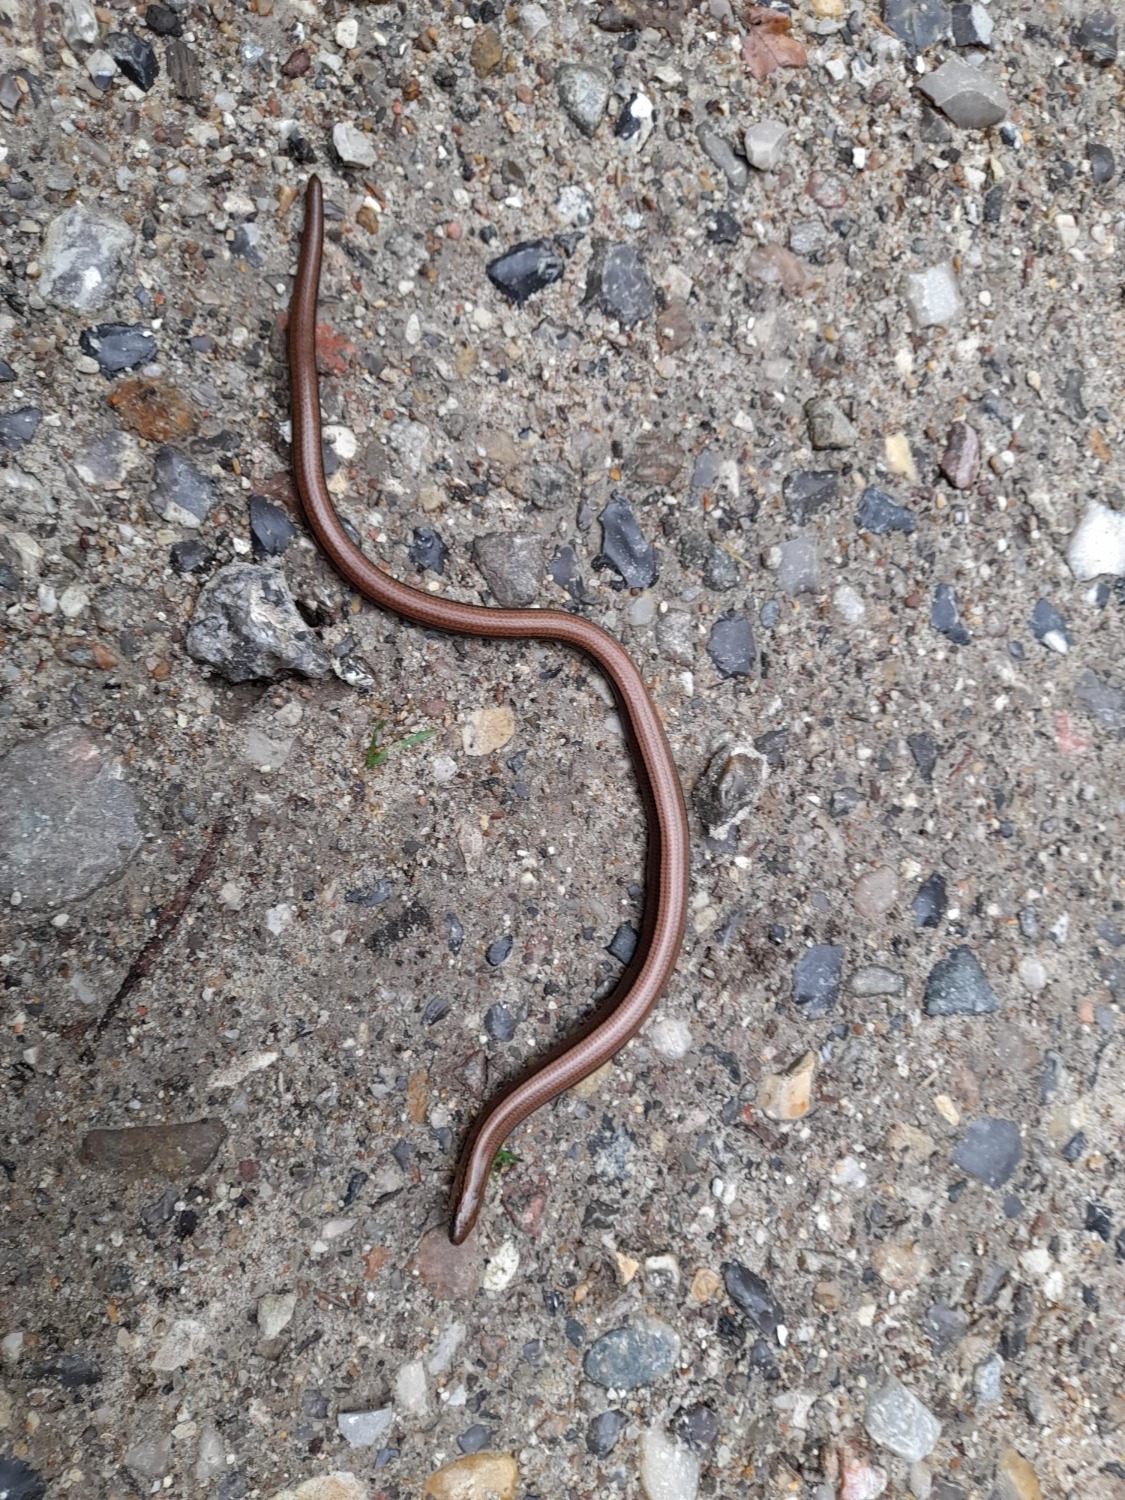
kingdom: Animalia
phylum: Chordata
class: Squamata
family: Anguidae
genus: Anguis
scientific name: Anguis fragilis
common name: Stålorm
